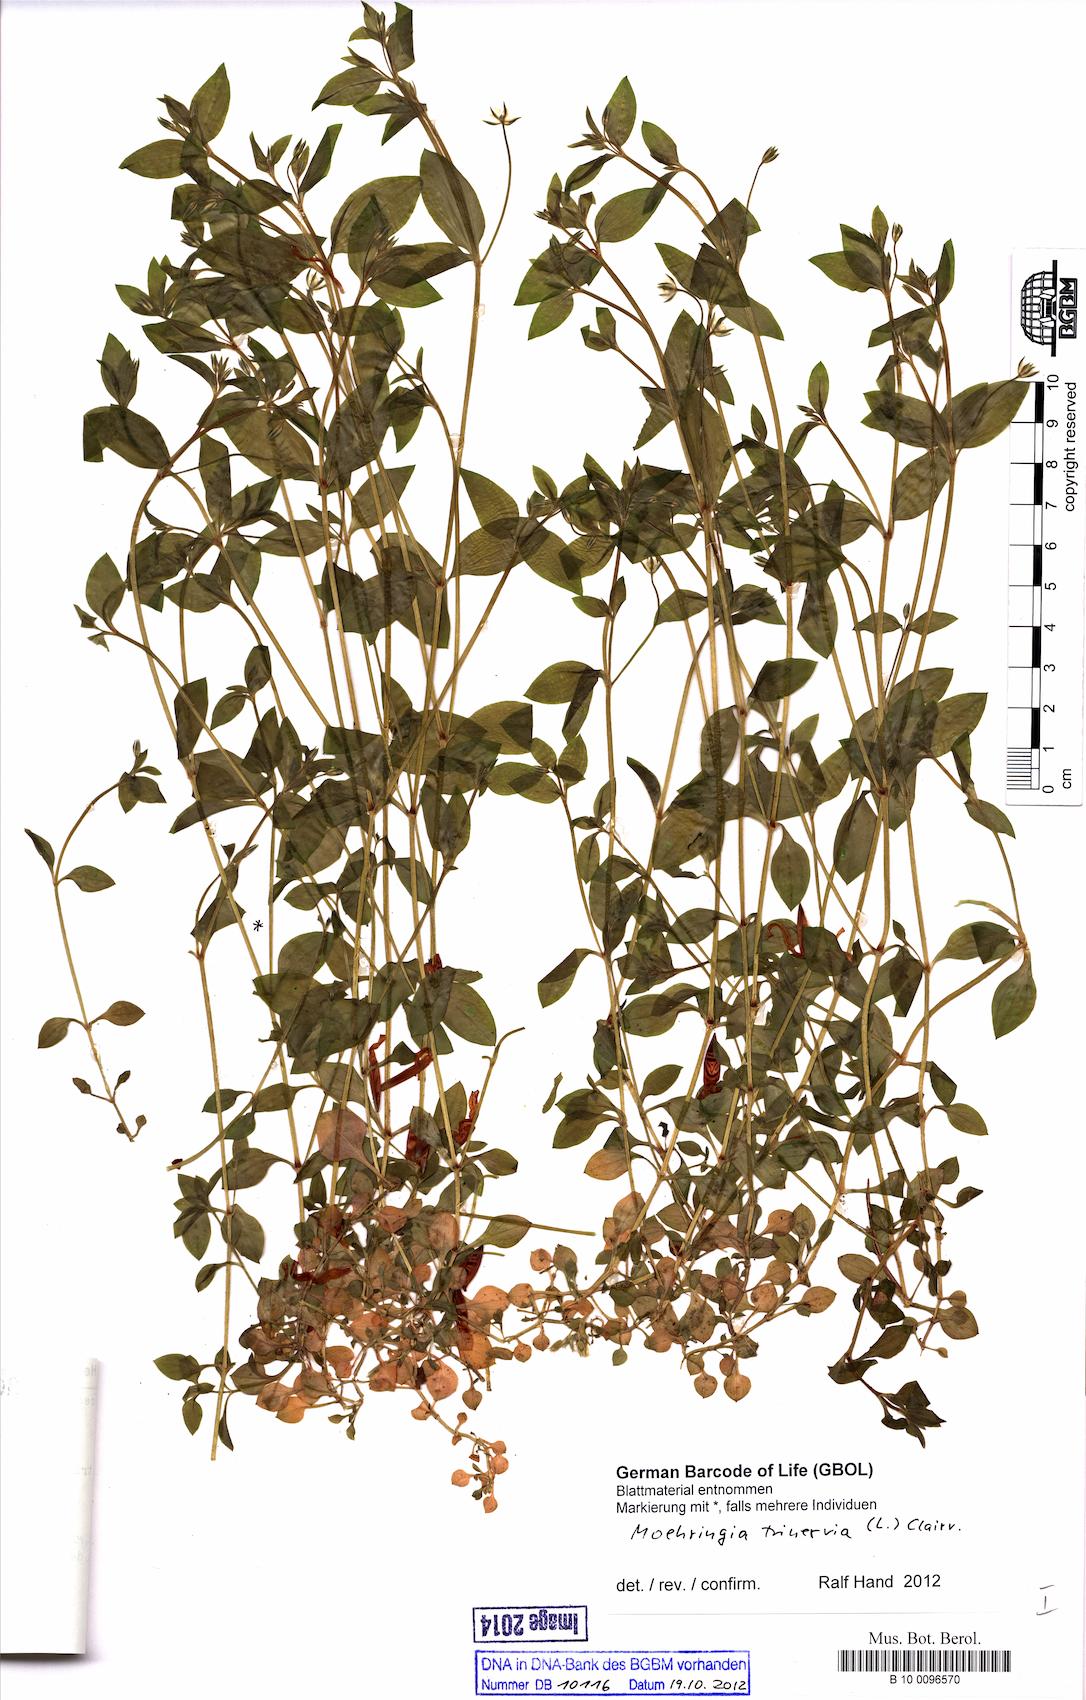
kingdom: Plantae
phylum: Tracheophyta
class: Magnoliopsida
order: Caryophyllales
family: Caryophyllaceae
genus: Moehringia
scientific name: Moehringia trinervia
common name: Three-nerved sandwort
